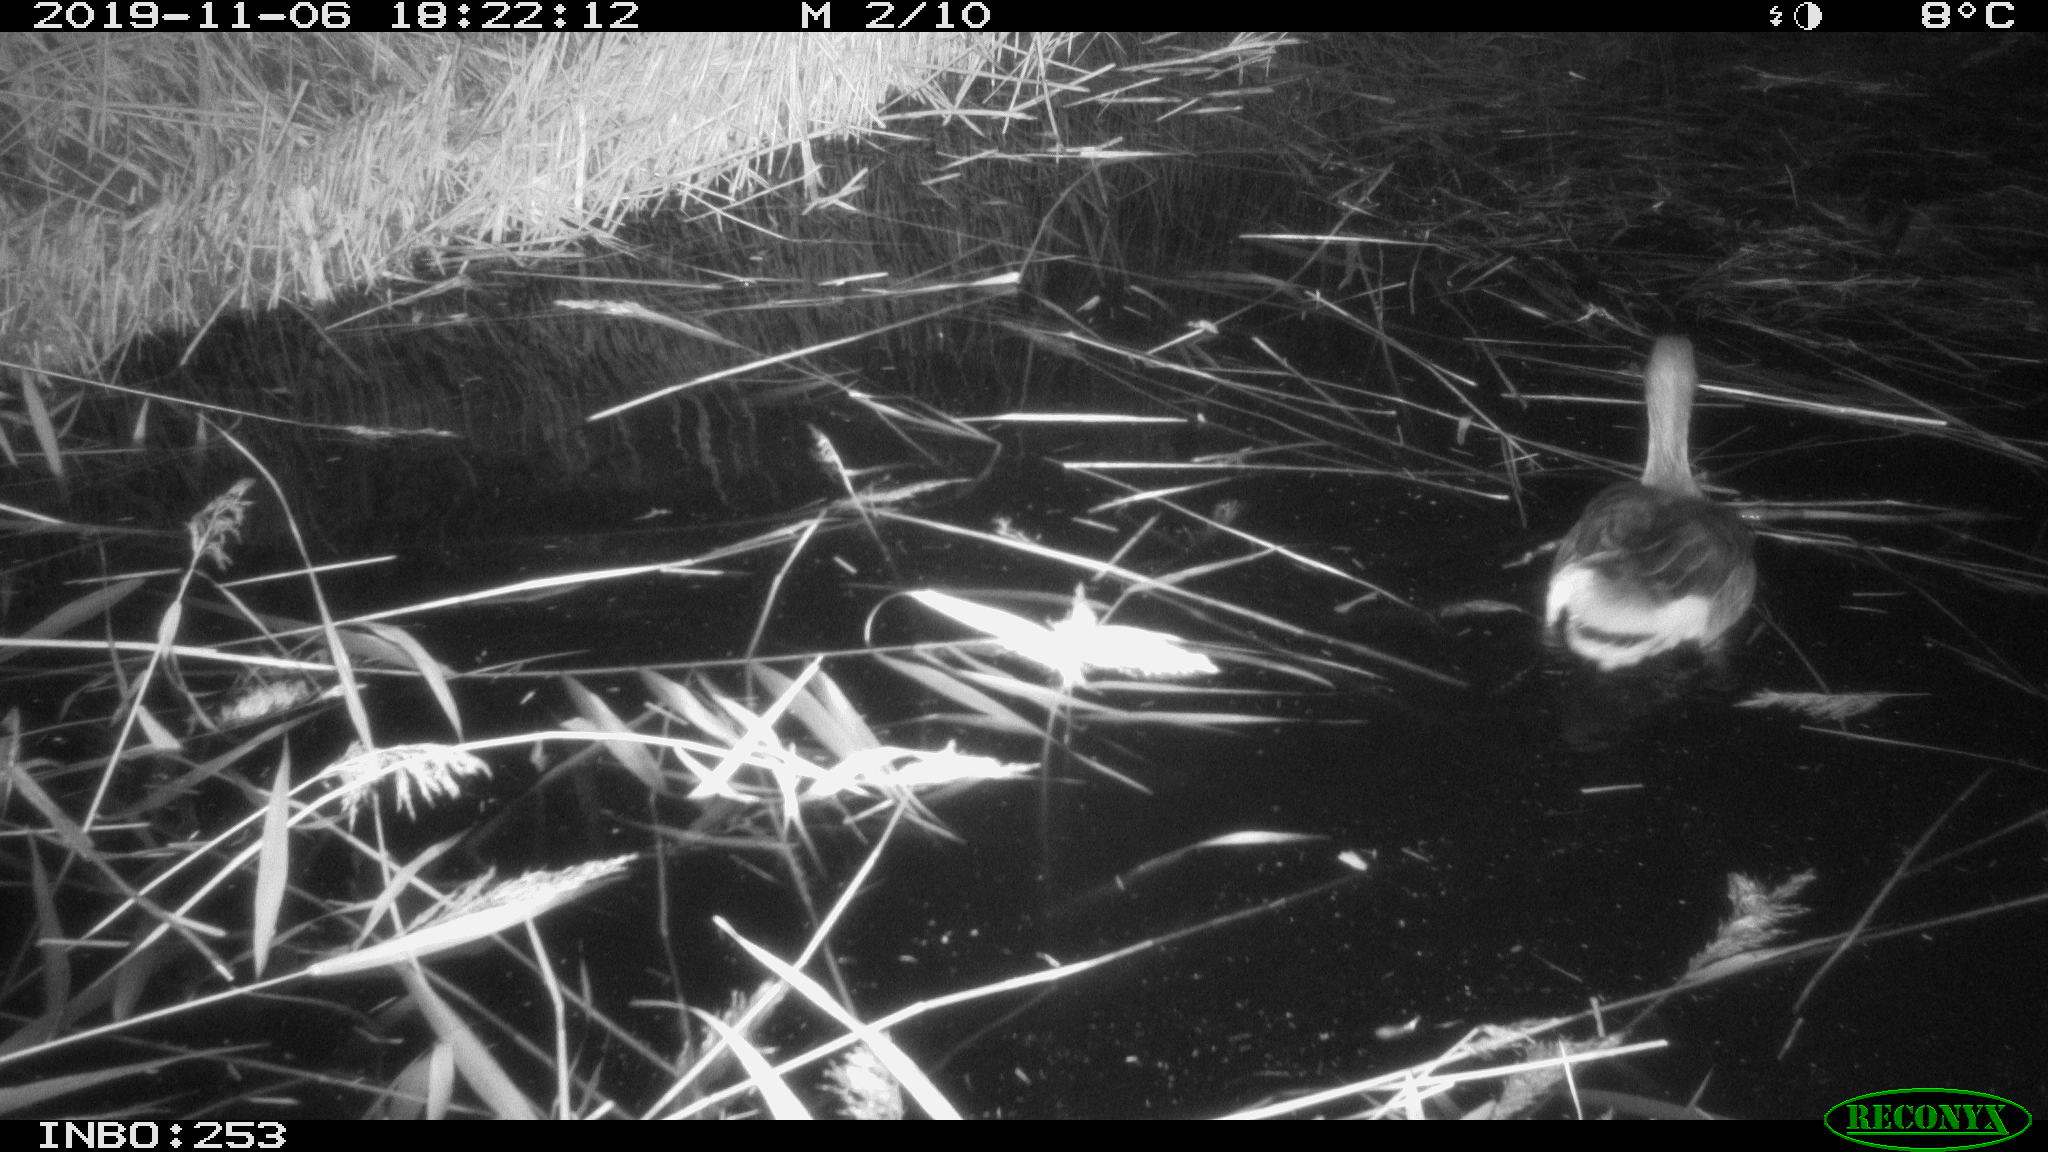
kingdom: Animalia
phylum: Chordata
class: Aves
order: Anseriformes
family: Anatidae
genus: Anser
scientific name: Anser anser
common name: Greylag goose
